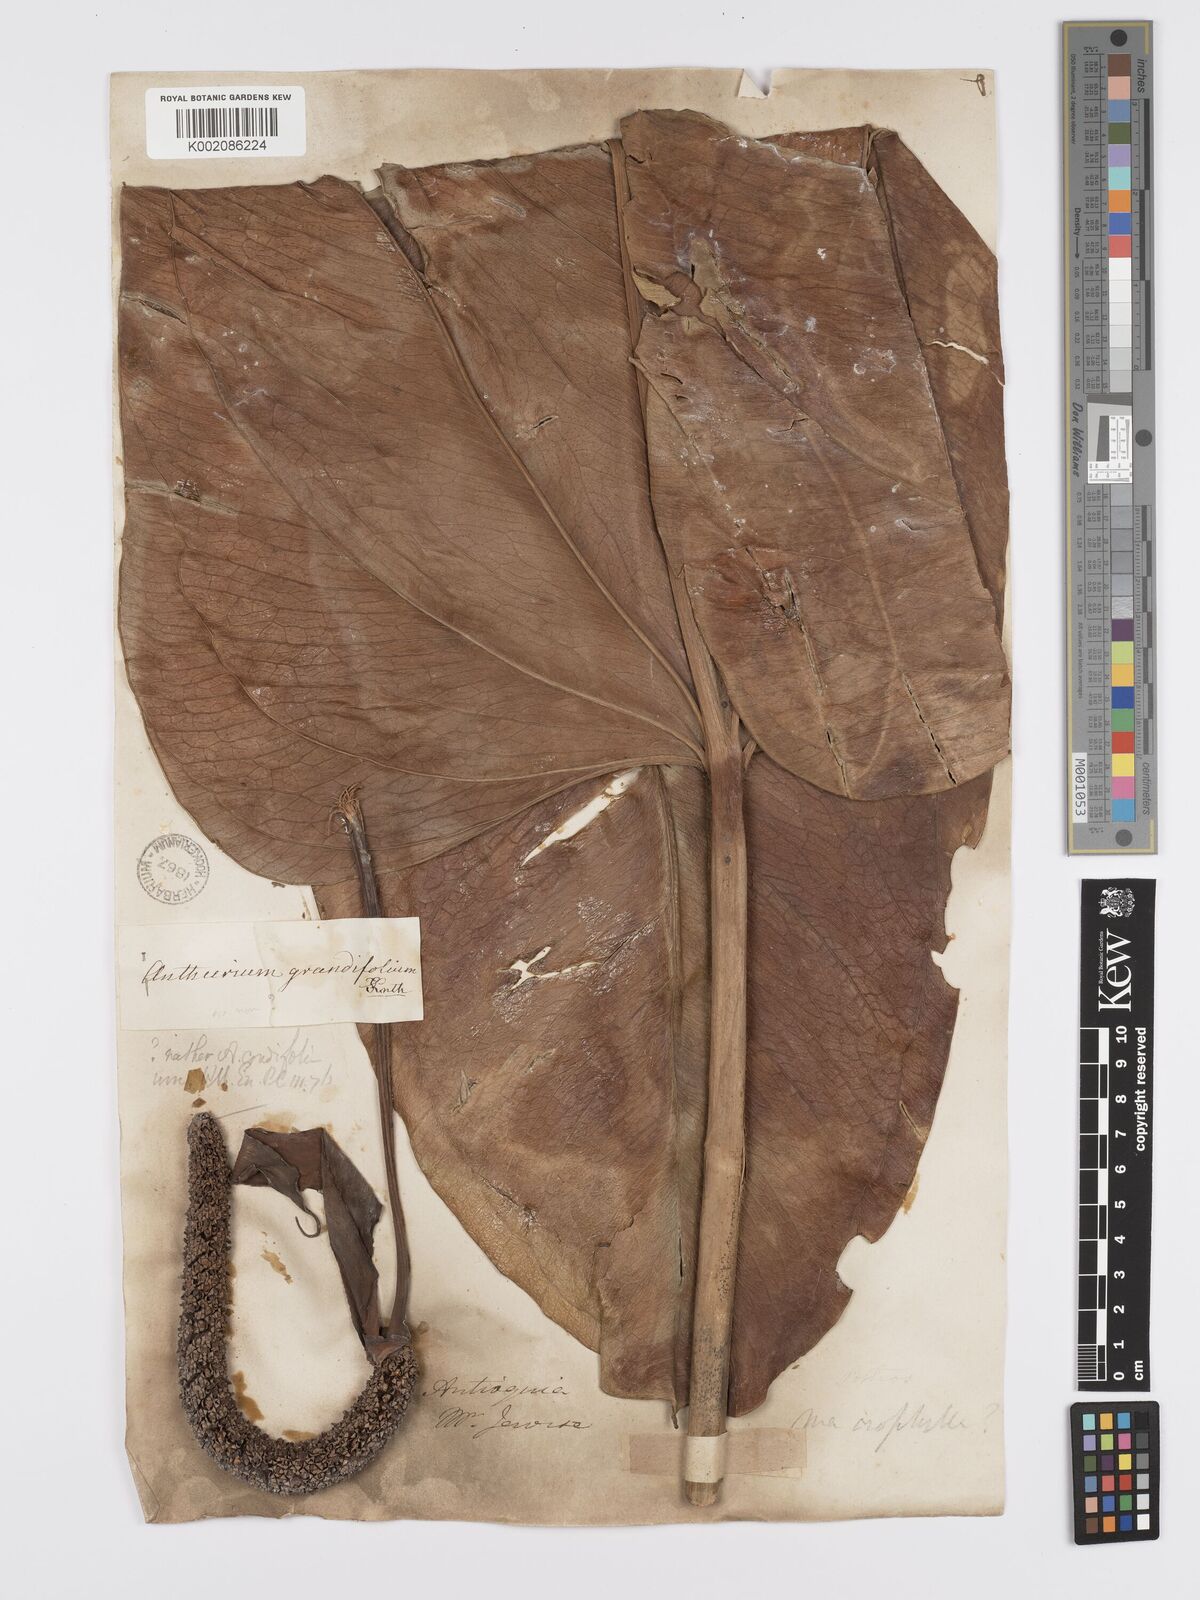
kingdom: Plantae
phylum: Tracheophyta
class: Liliopsida
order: Alismatales
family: Araceae
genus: Anthurium
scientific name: Anthurium grandifolium
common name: Monkey tail
